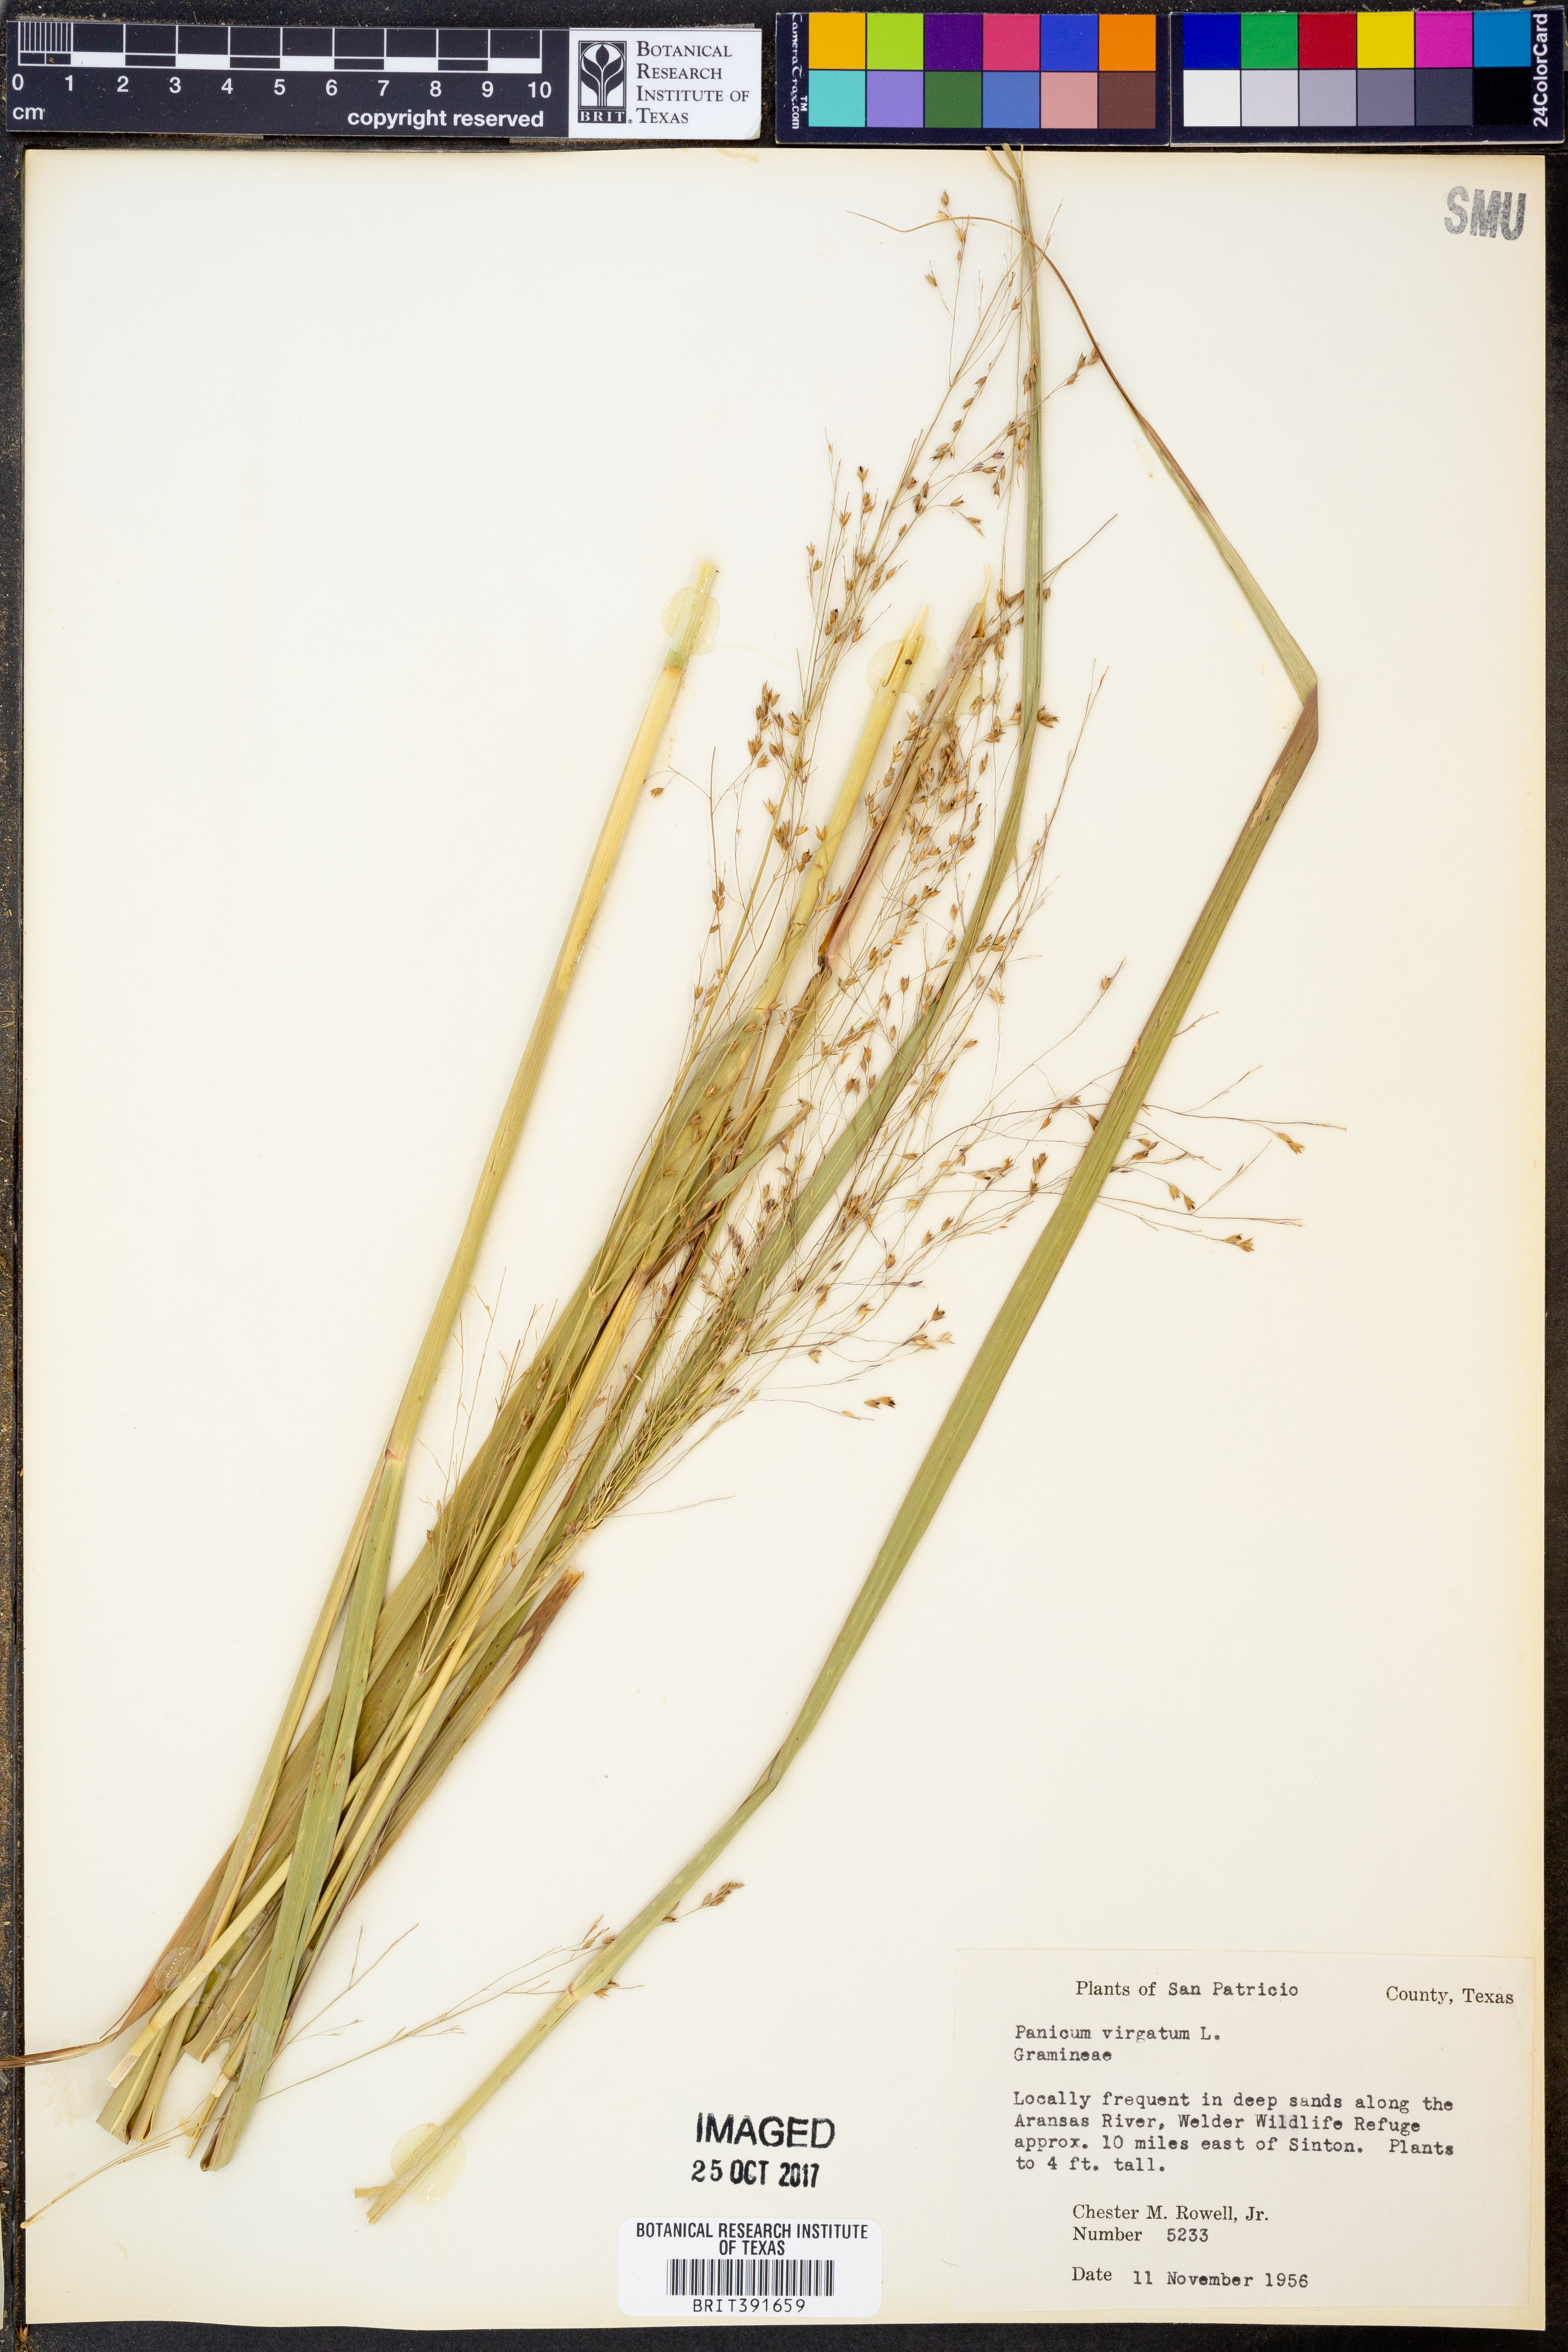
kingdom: Plantae
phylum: Tracheophyta
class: Liliopsida
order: Poales
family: Poaceae
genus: Panicum
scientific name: Panicum virgatum
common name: Switchgrass
